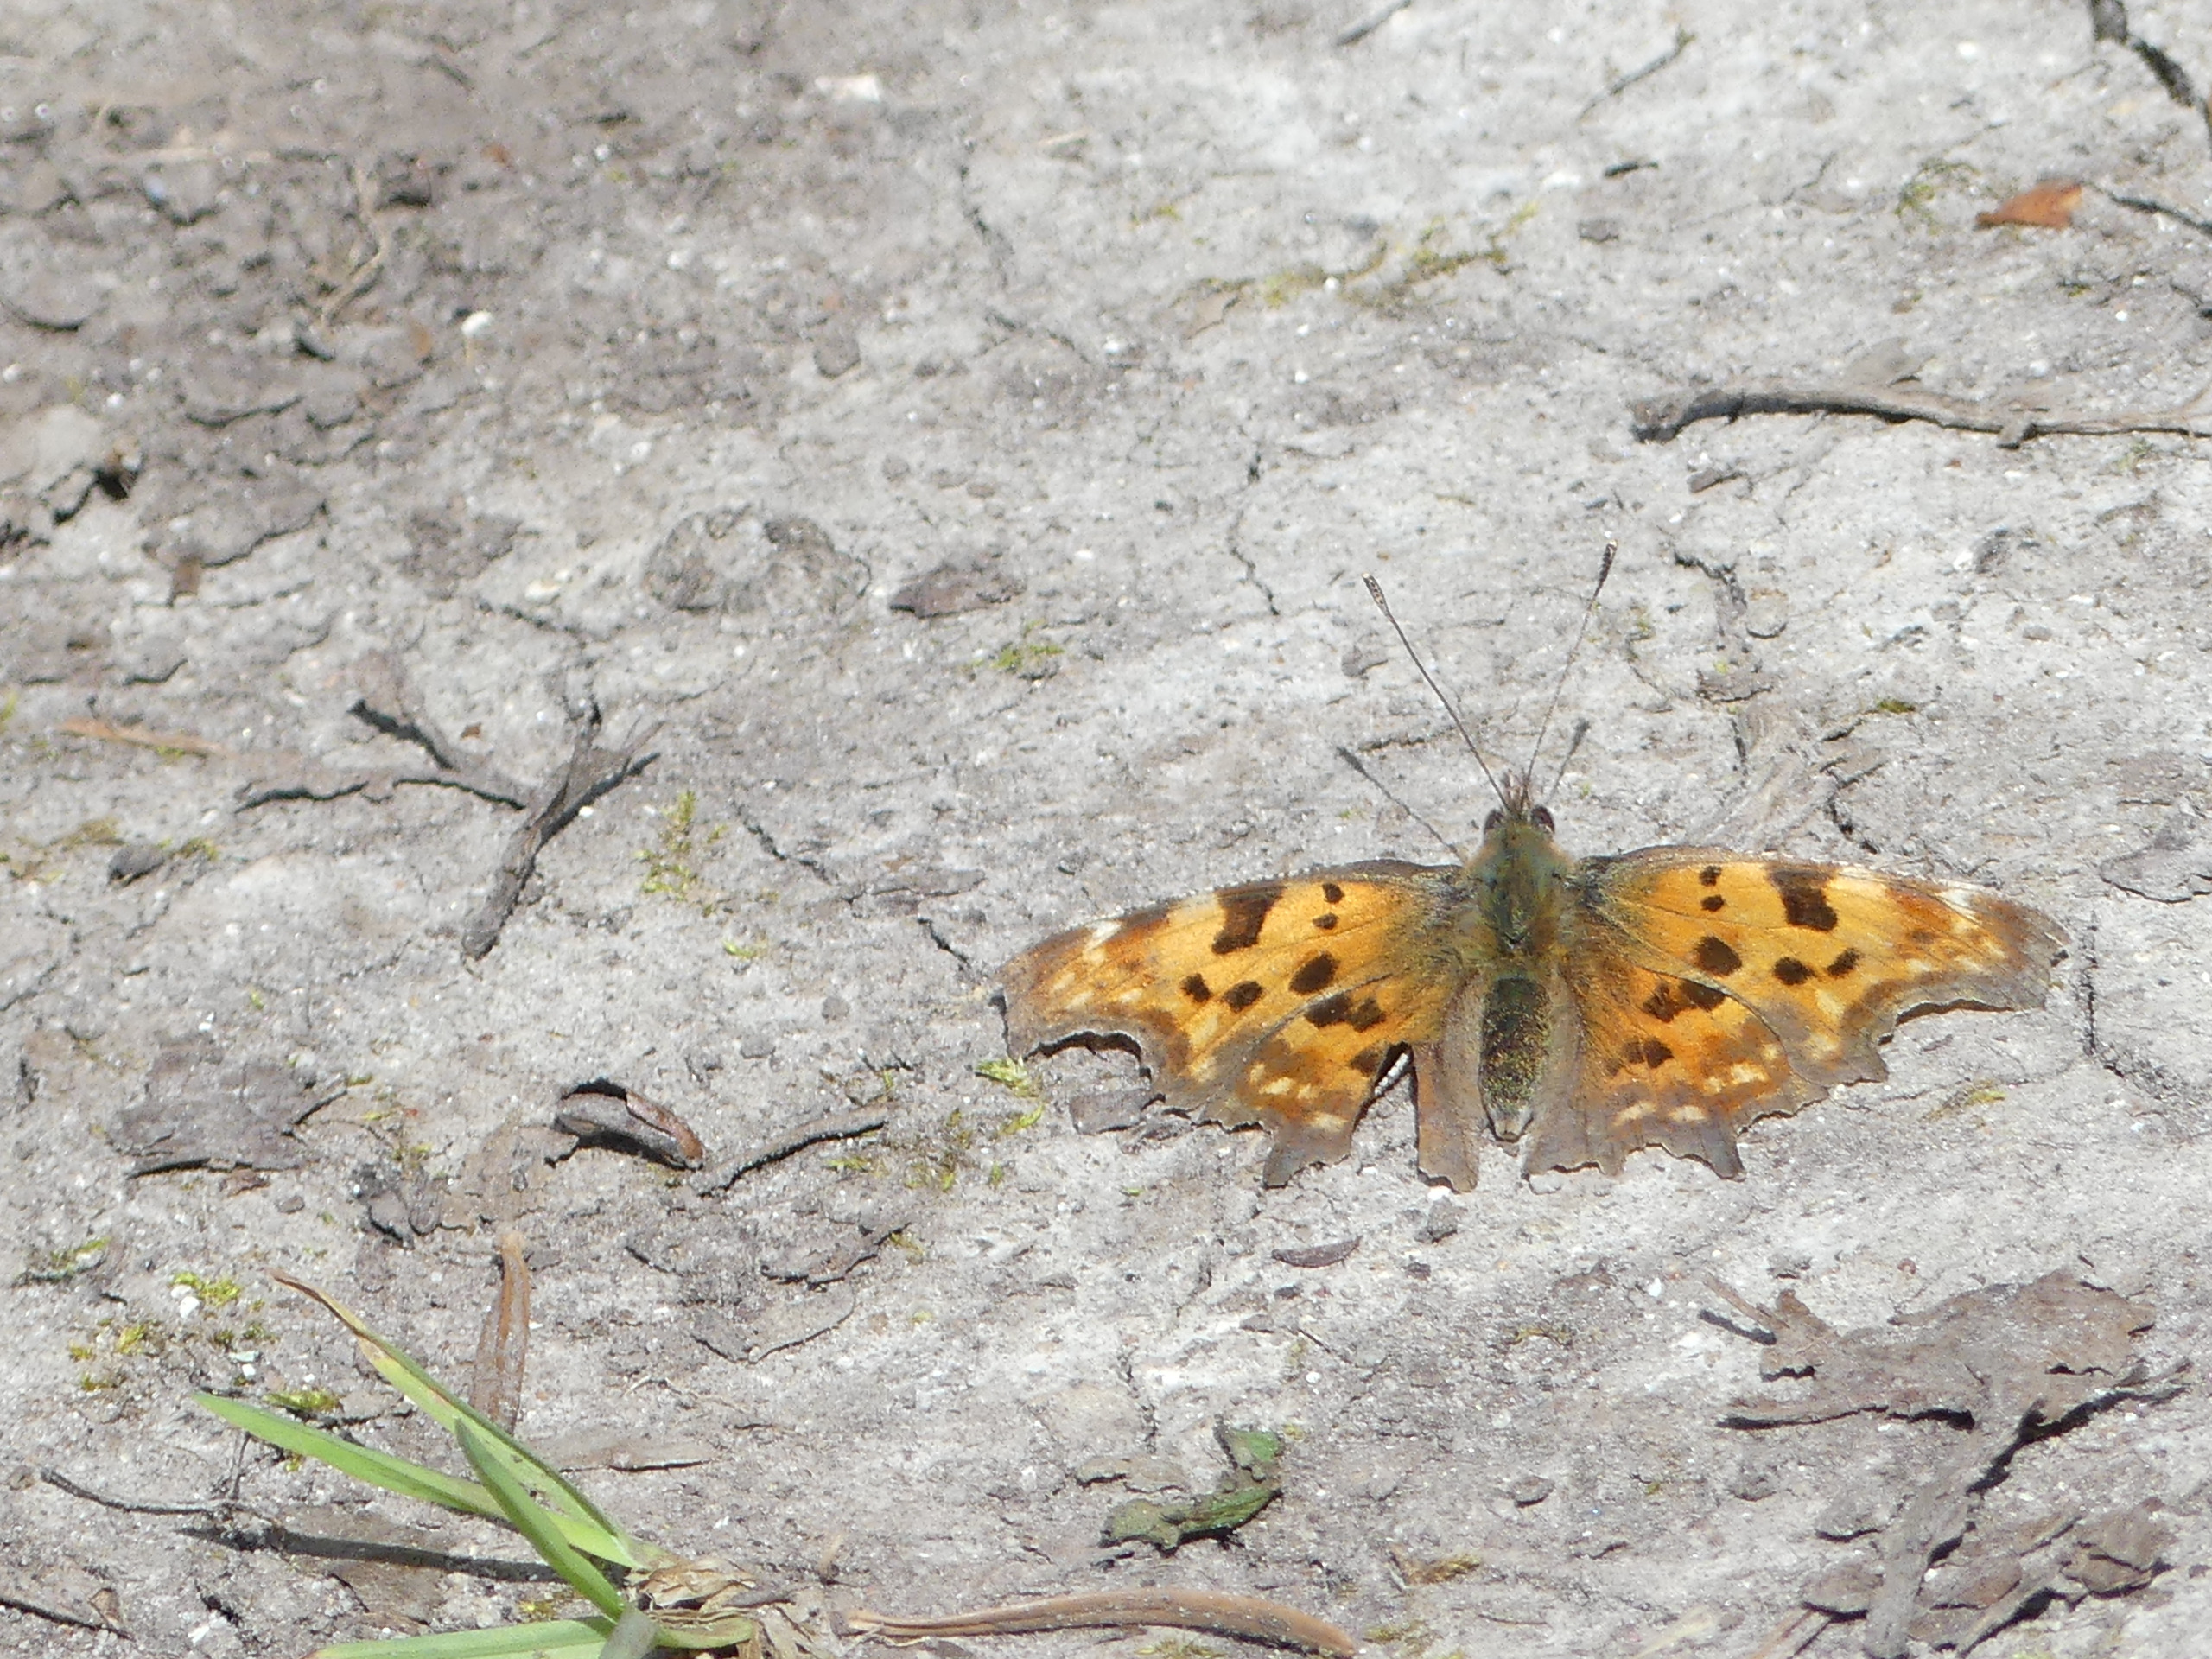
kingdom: Animalia
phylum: Arthropoda
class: Insecta
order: Lepidoptera
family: Nymphalidae
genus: Polygonia
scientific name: Polygonia c-album
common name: Det hvide C
